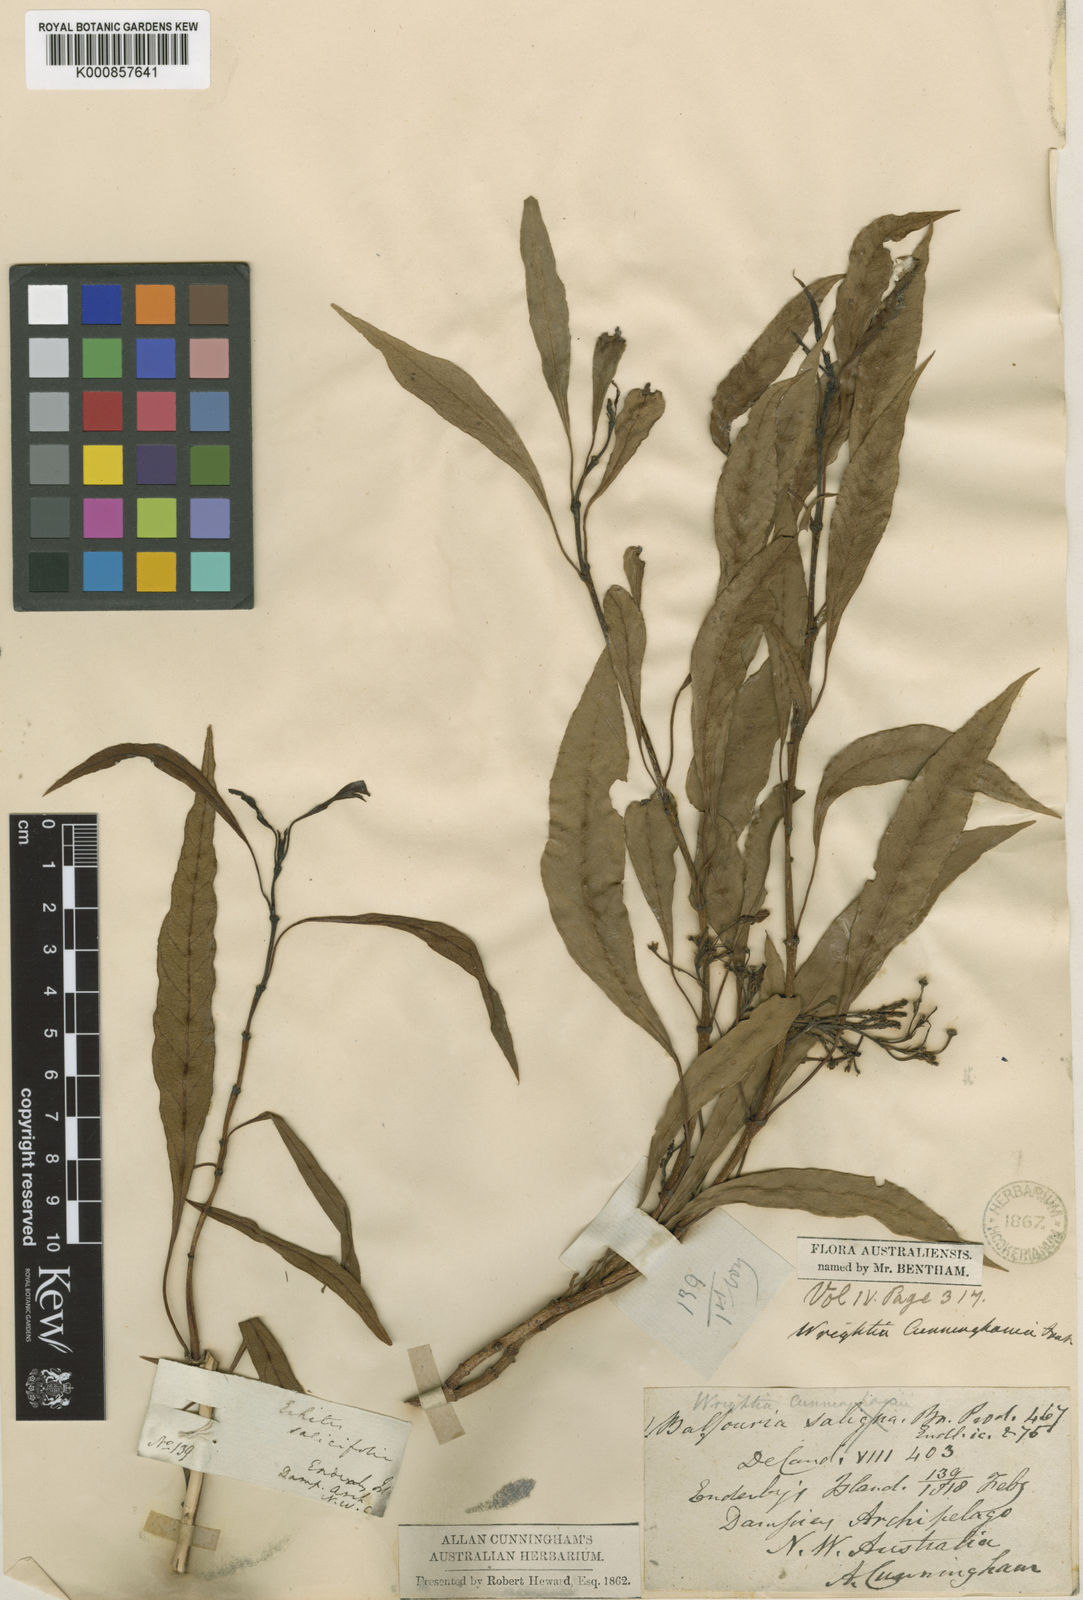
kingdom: Plantae
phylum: Tracheophyta
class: Magnoliopsida
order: Gentianales
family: Apocynaceae
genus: Gymnanthera
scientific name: Gymnanthera cunninghamii
